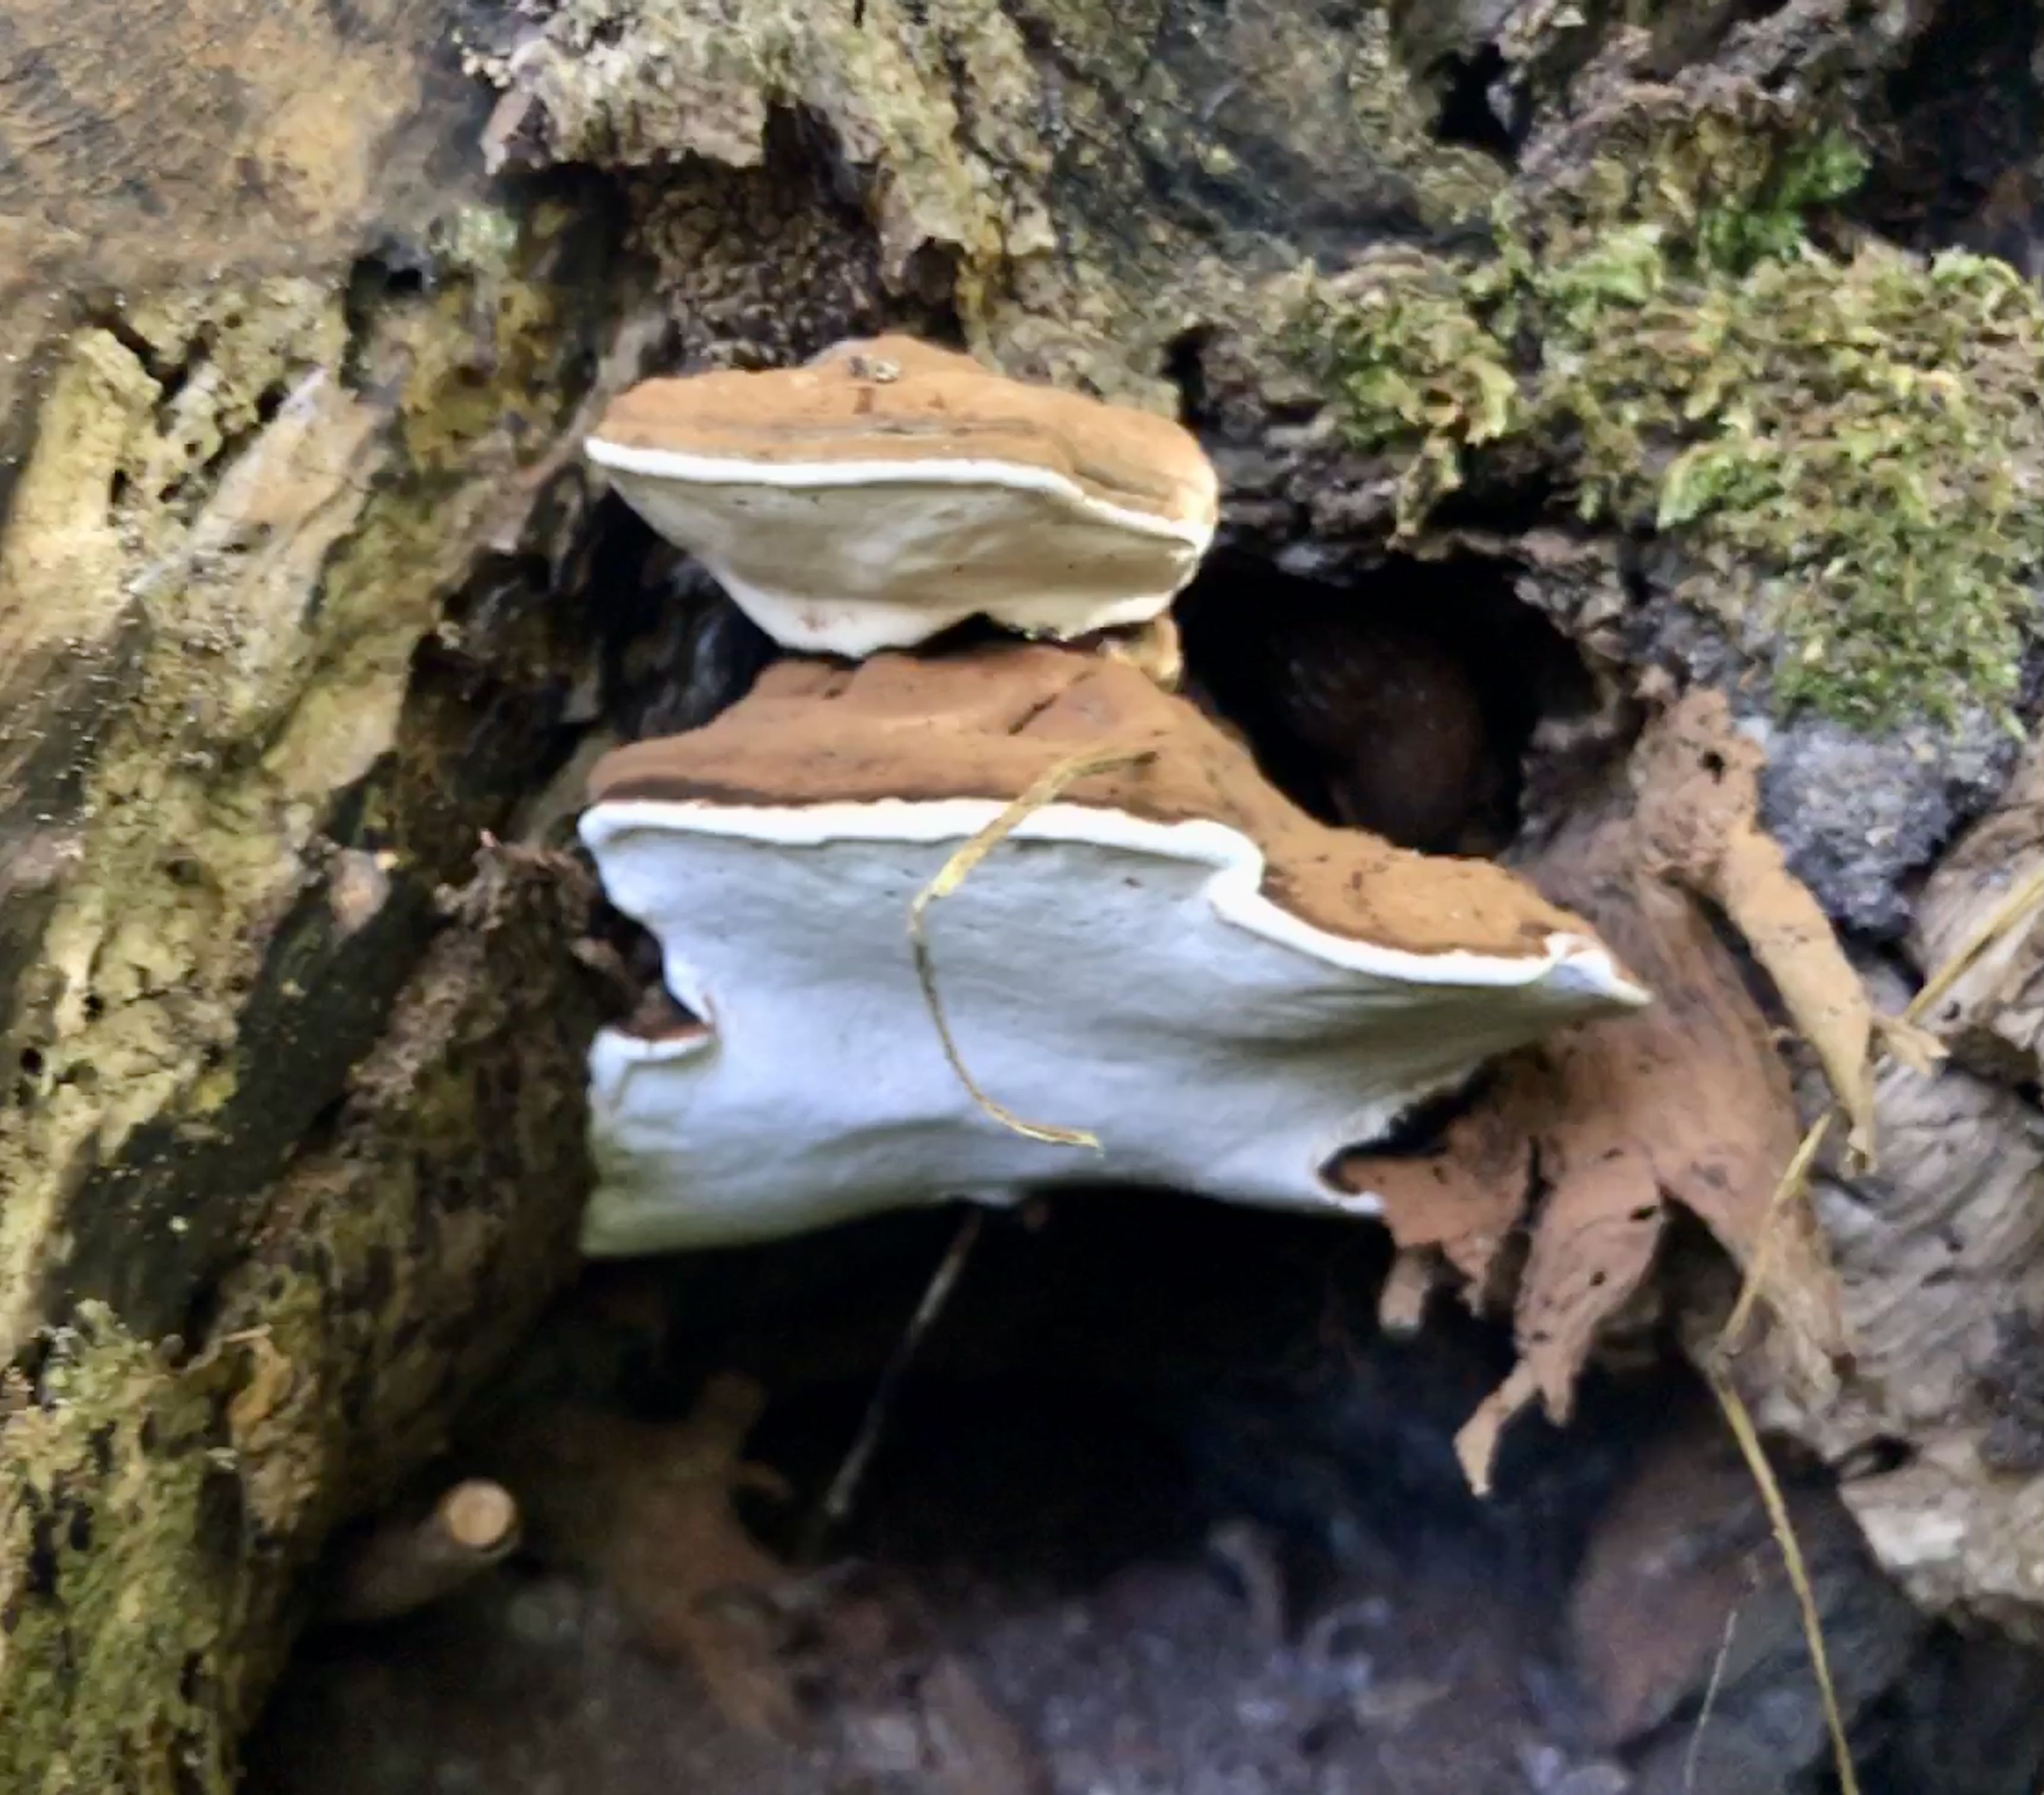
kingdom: Fungi
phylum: Basidiomycota
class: Agaricomycetes
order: Polyporales
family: Polyporaceae
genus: Ganoderma
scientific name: Ganoderma applanatum
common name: flad lakporesvamp
